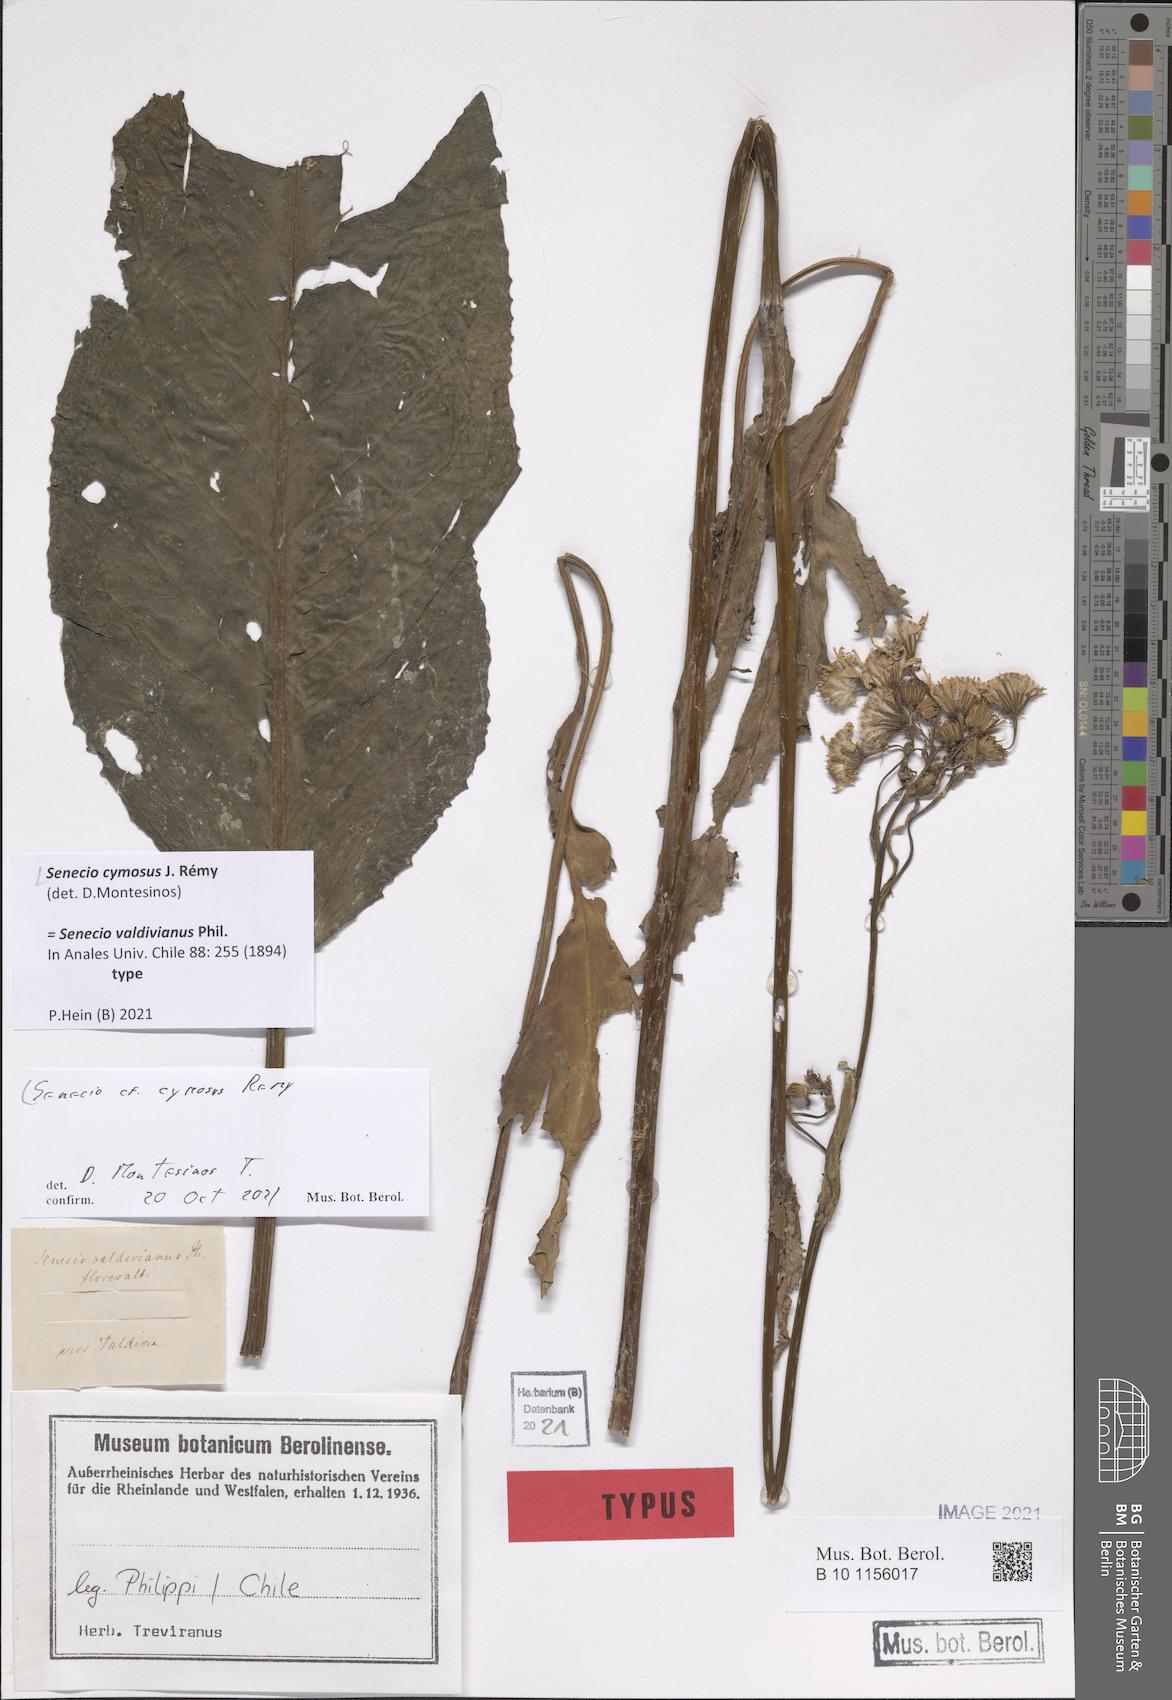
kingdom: Plantae
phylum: Tracheophyta
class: Magnoliopsida
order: Asterales
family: Asteraceae
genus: Acrisione
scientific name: Acrisione cymosa
